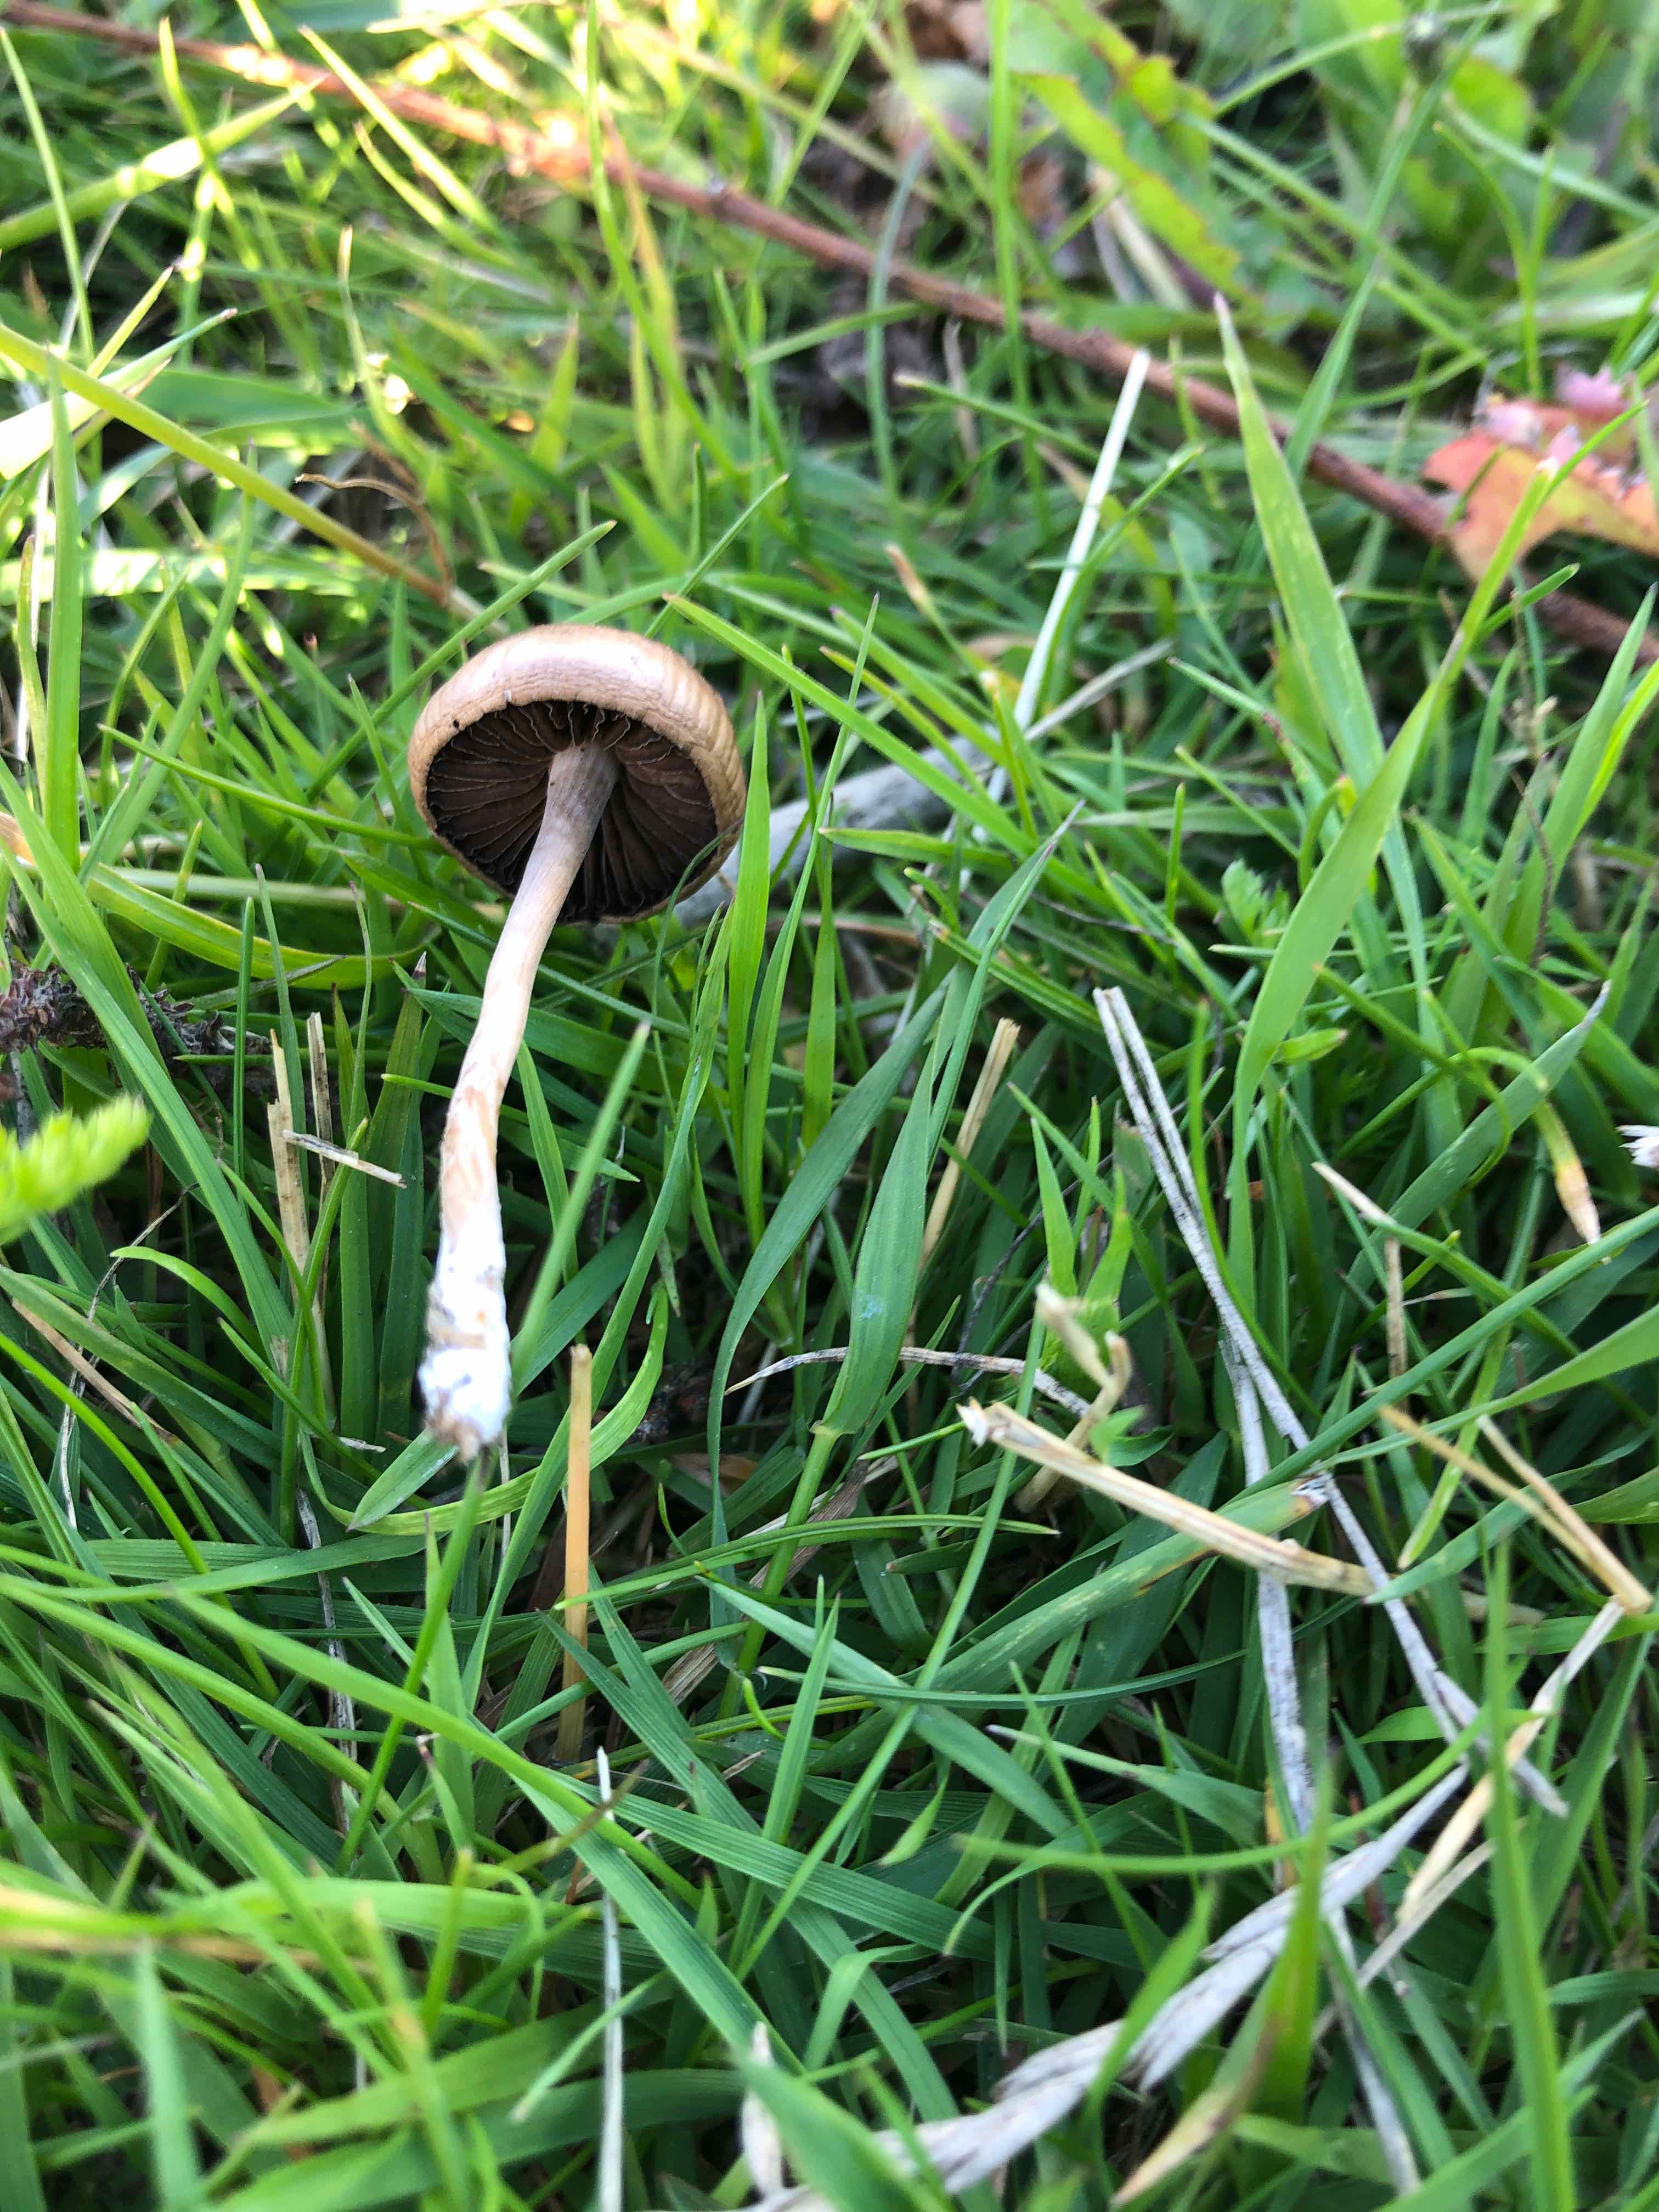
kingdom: Fungi
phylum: Basidiomycota
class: Agaricomycetes
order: Agaricales
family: Bolbitiaceae
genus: Panaeolina
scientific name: Panaeolina foenisecii
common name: høslætsvamp
